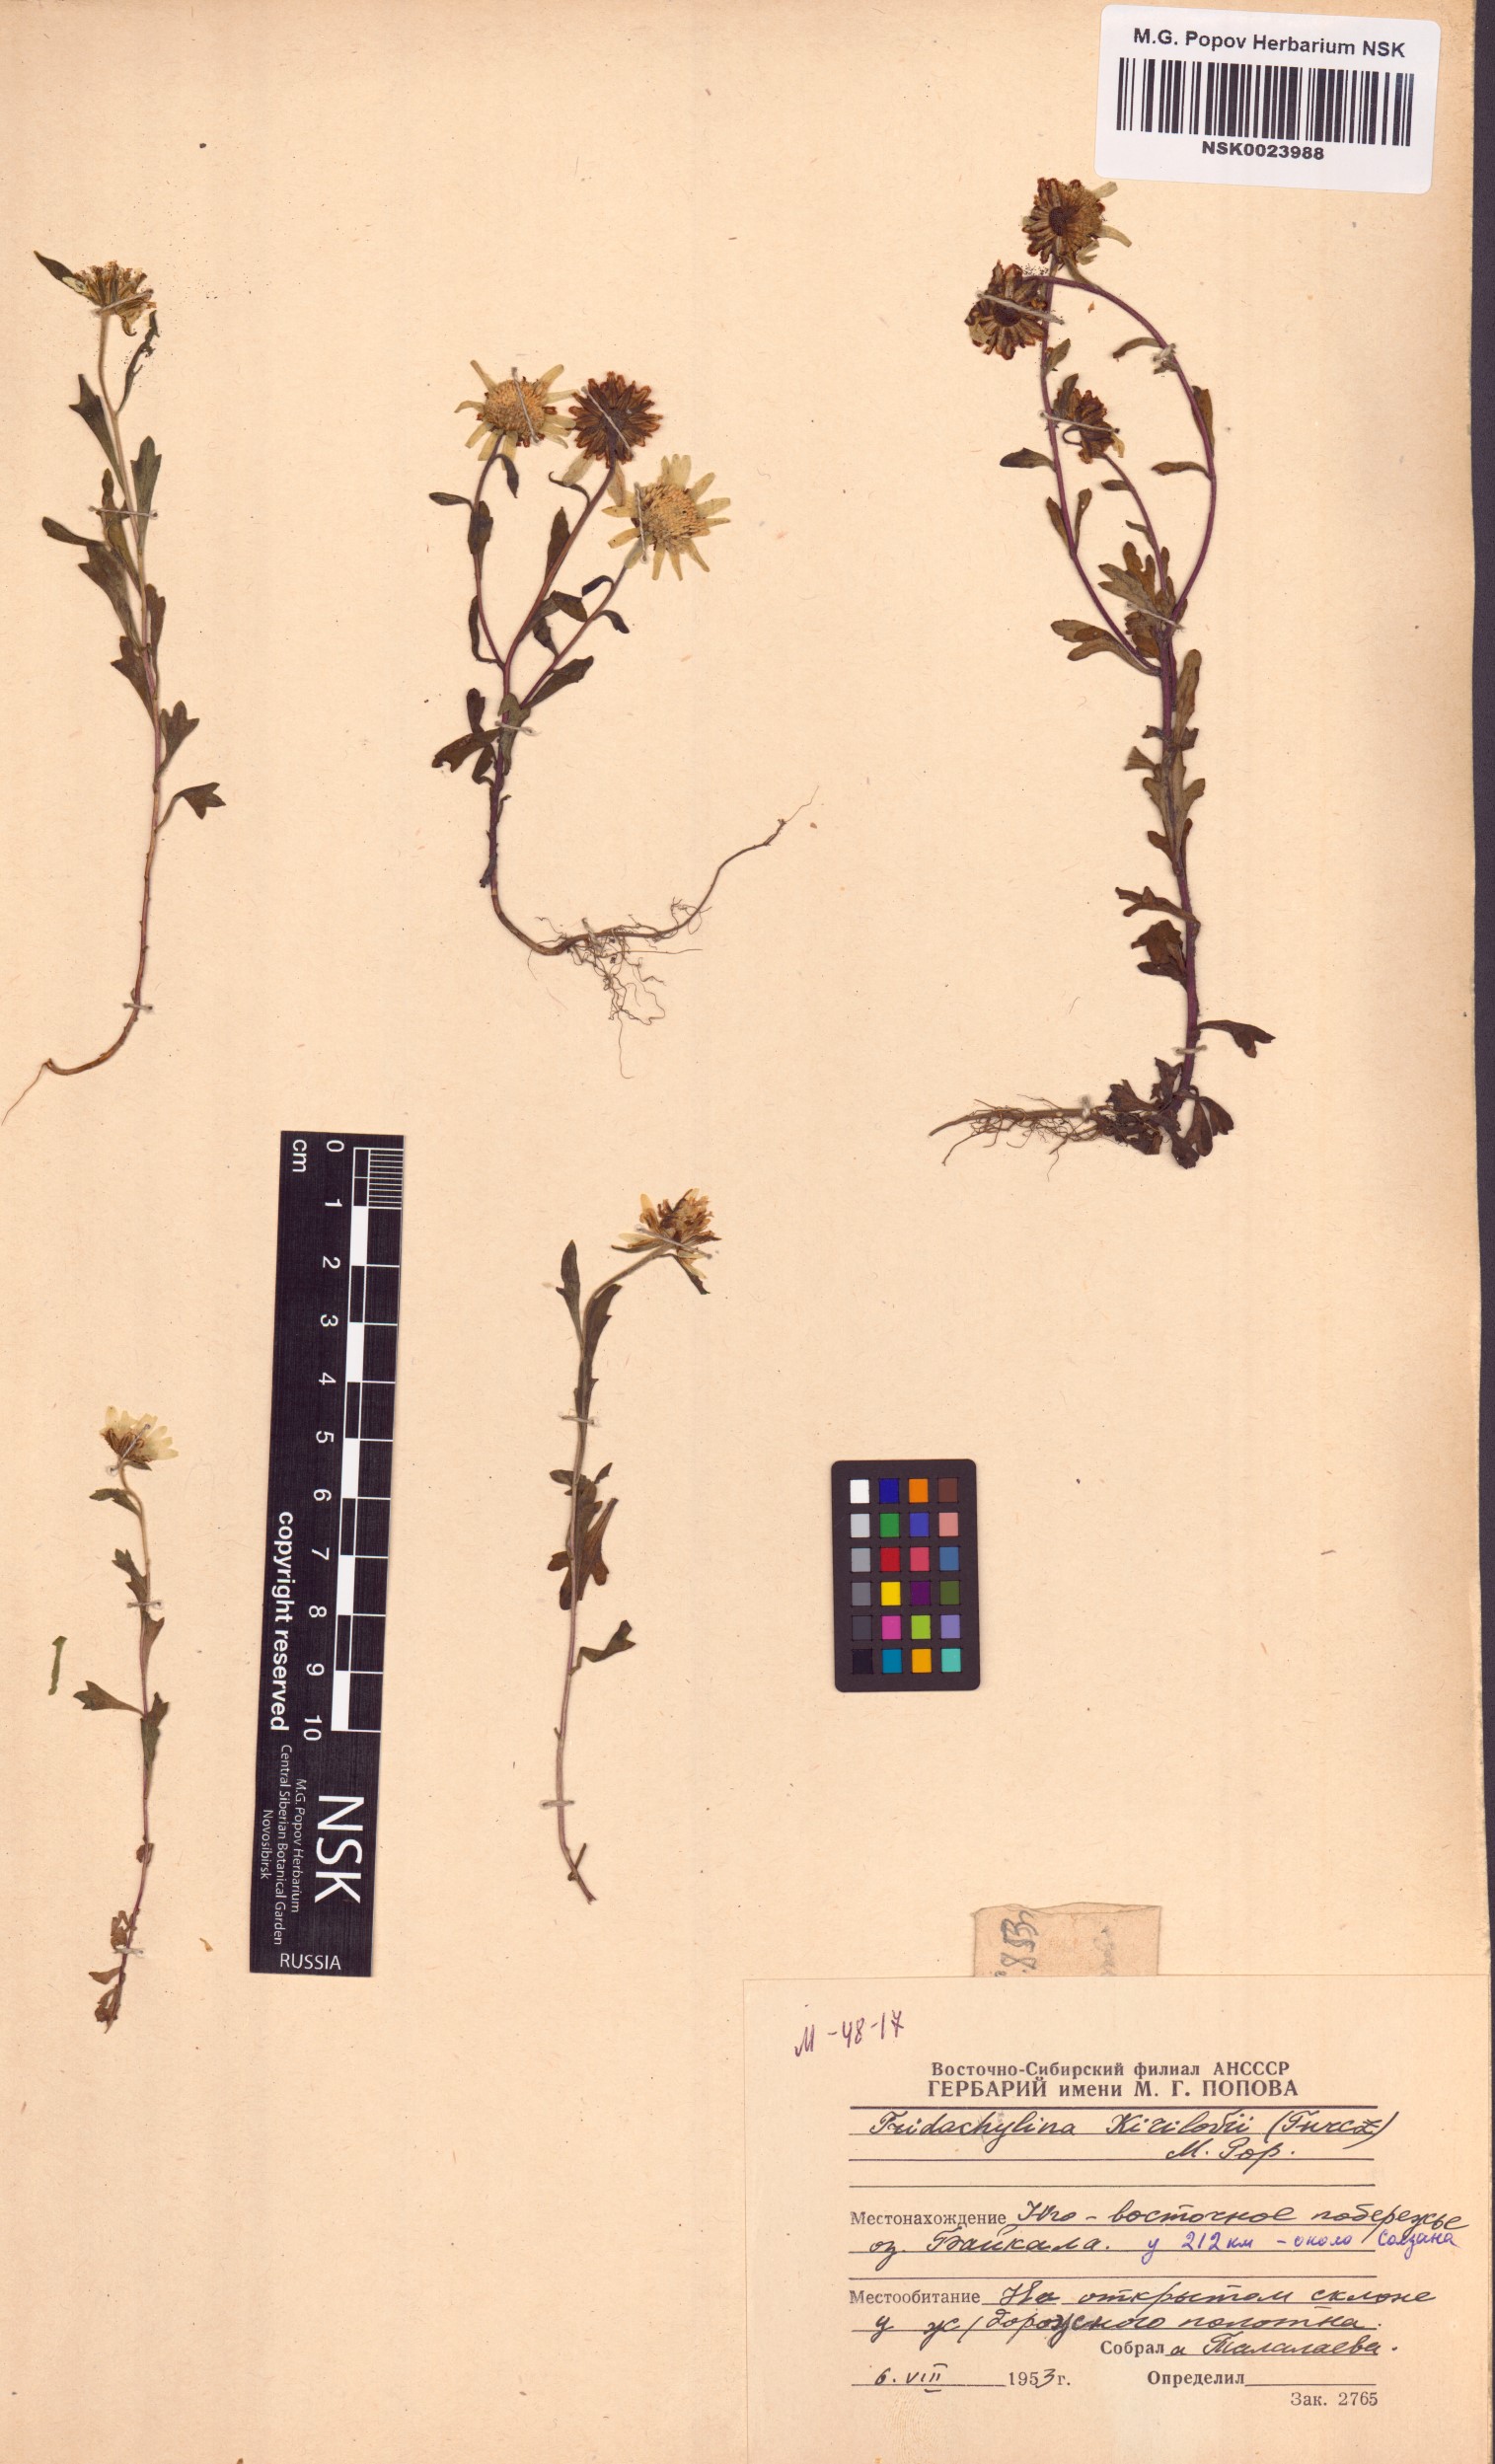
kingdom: Plantae
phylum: Tracheophyta
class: Magnoliopsida
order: Asterales
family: Asteraceae
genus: Tridactylina
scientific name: Tridactylina kirilowii
